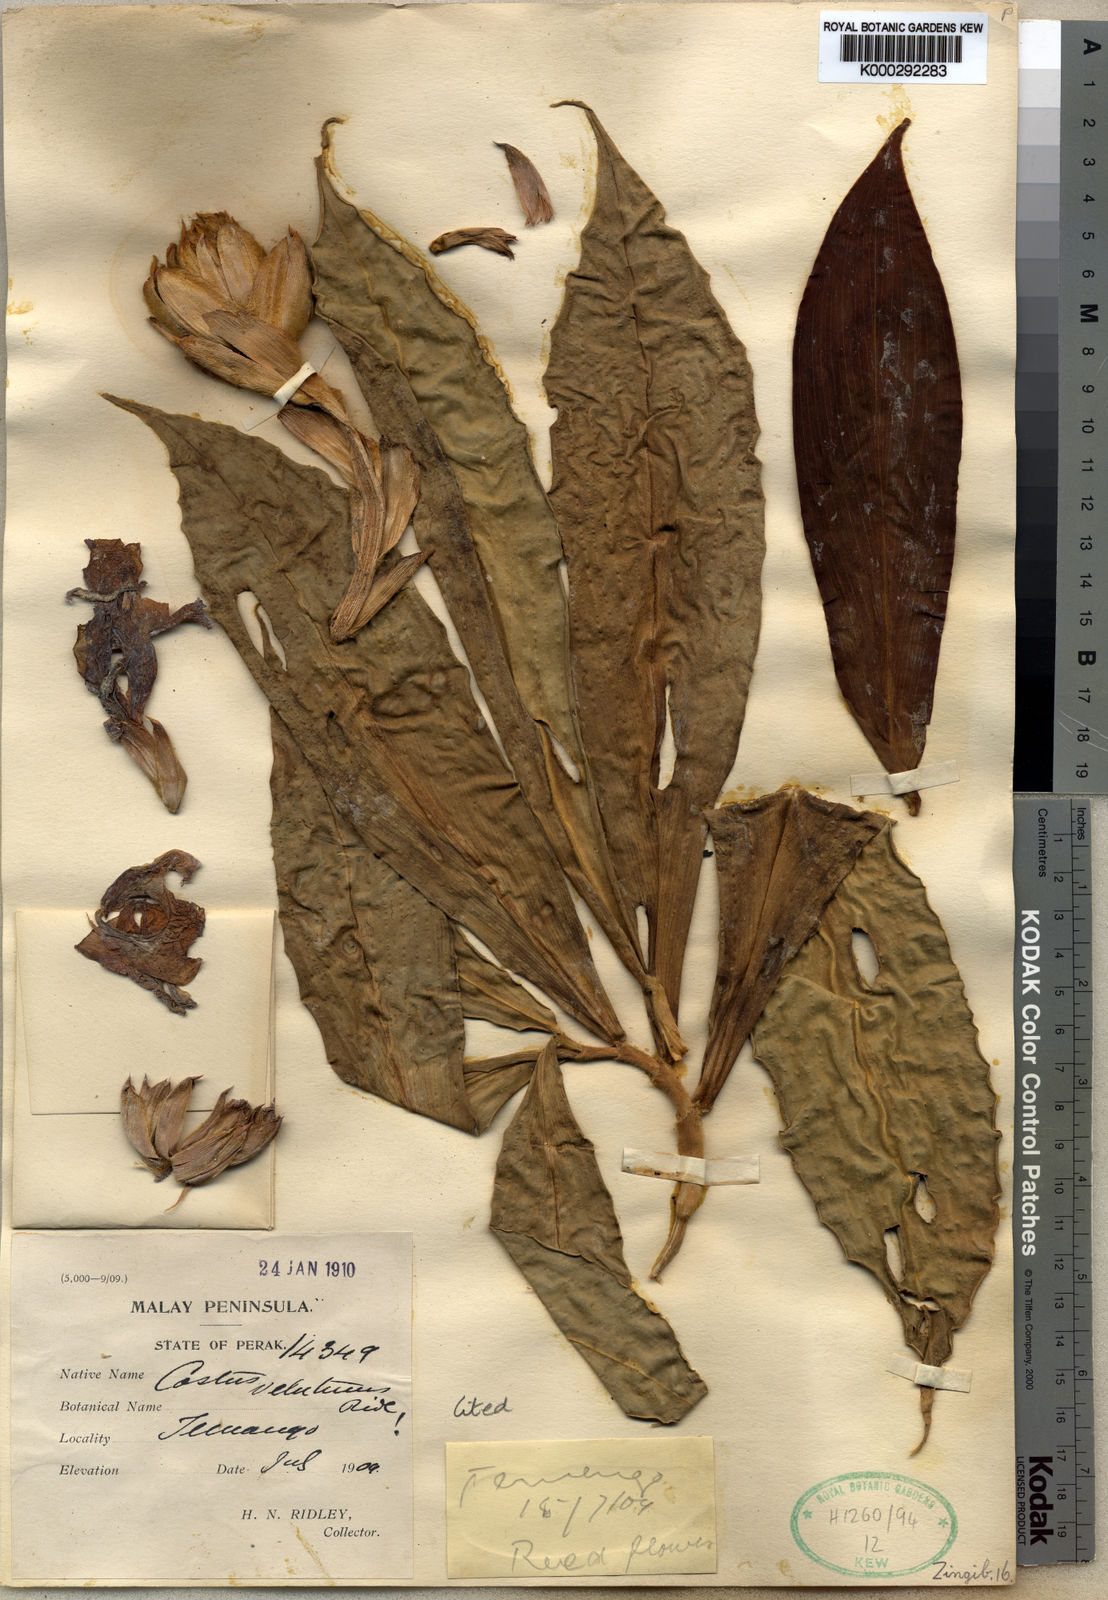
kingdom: Plantae
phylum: Tracheophyta
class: Liliopsida
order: Zingiberales
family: Costaceae
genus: Hellenia
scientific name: Hellenia globosa
